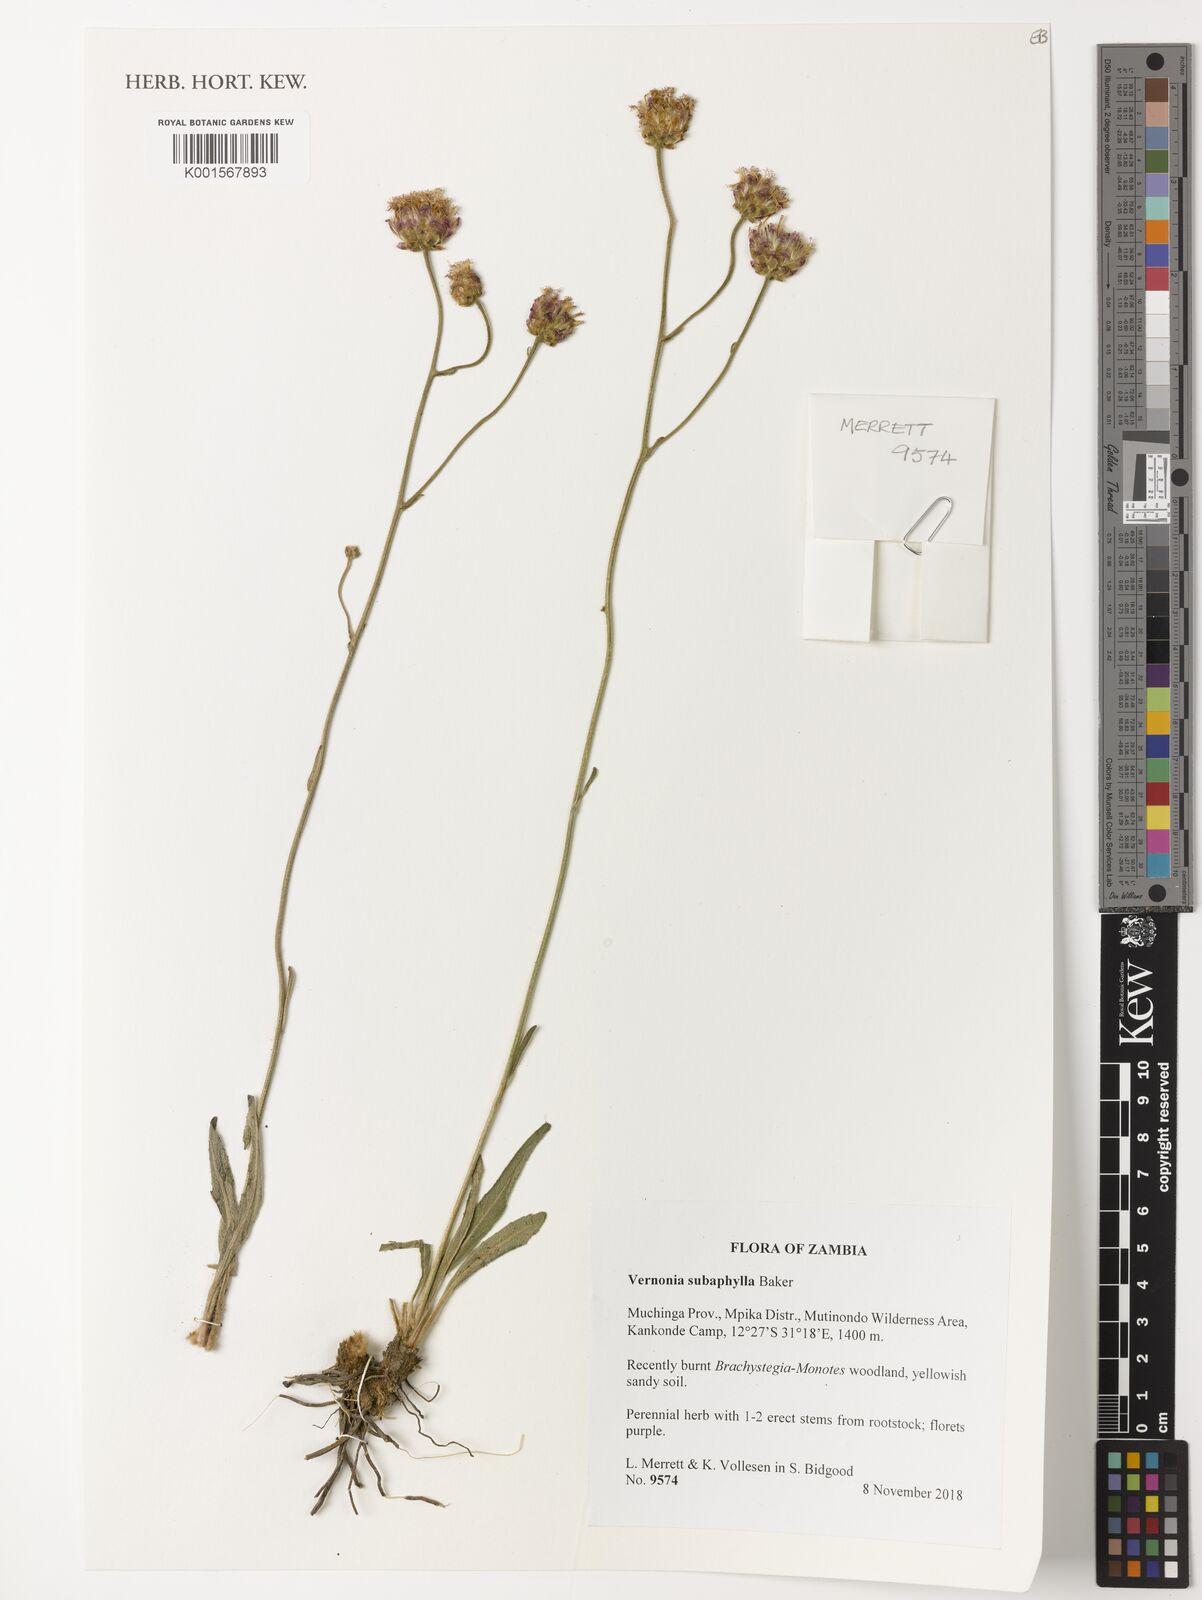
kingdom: Plantae
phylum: Tracheophyta
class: Magnoliopsida
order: Asterales
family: Asteraceae
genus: Vernonella
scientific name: Vernonella subaphylla
